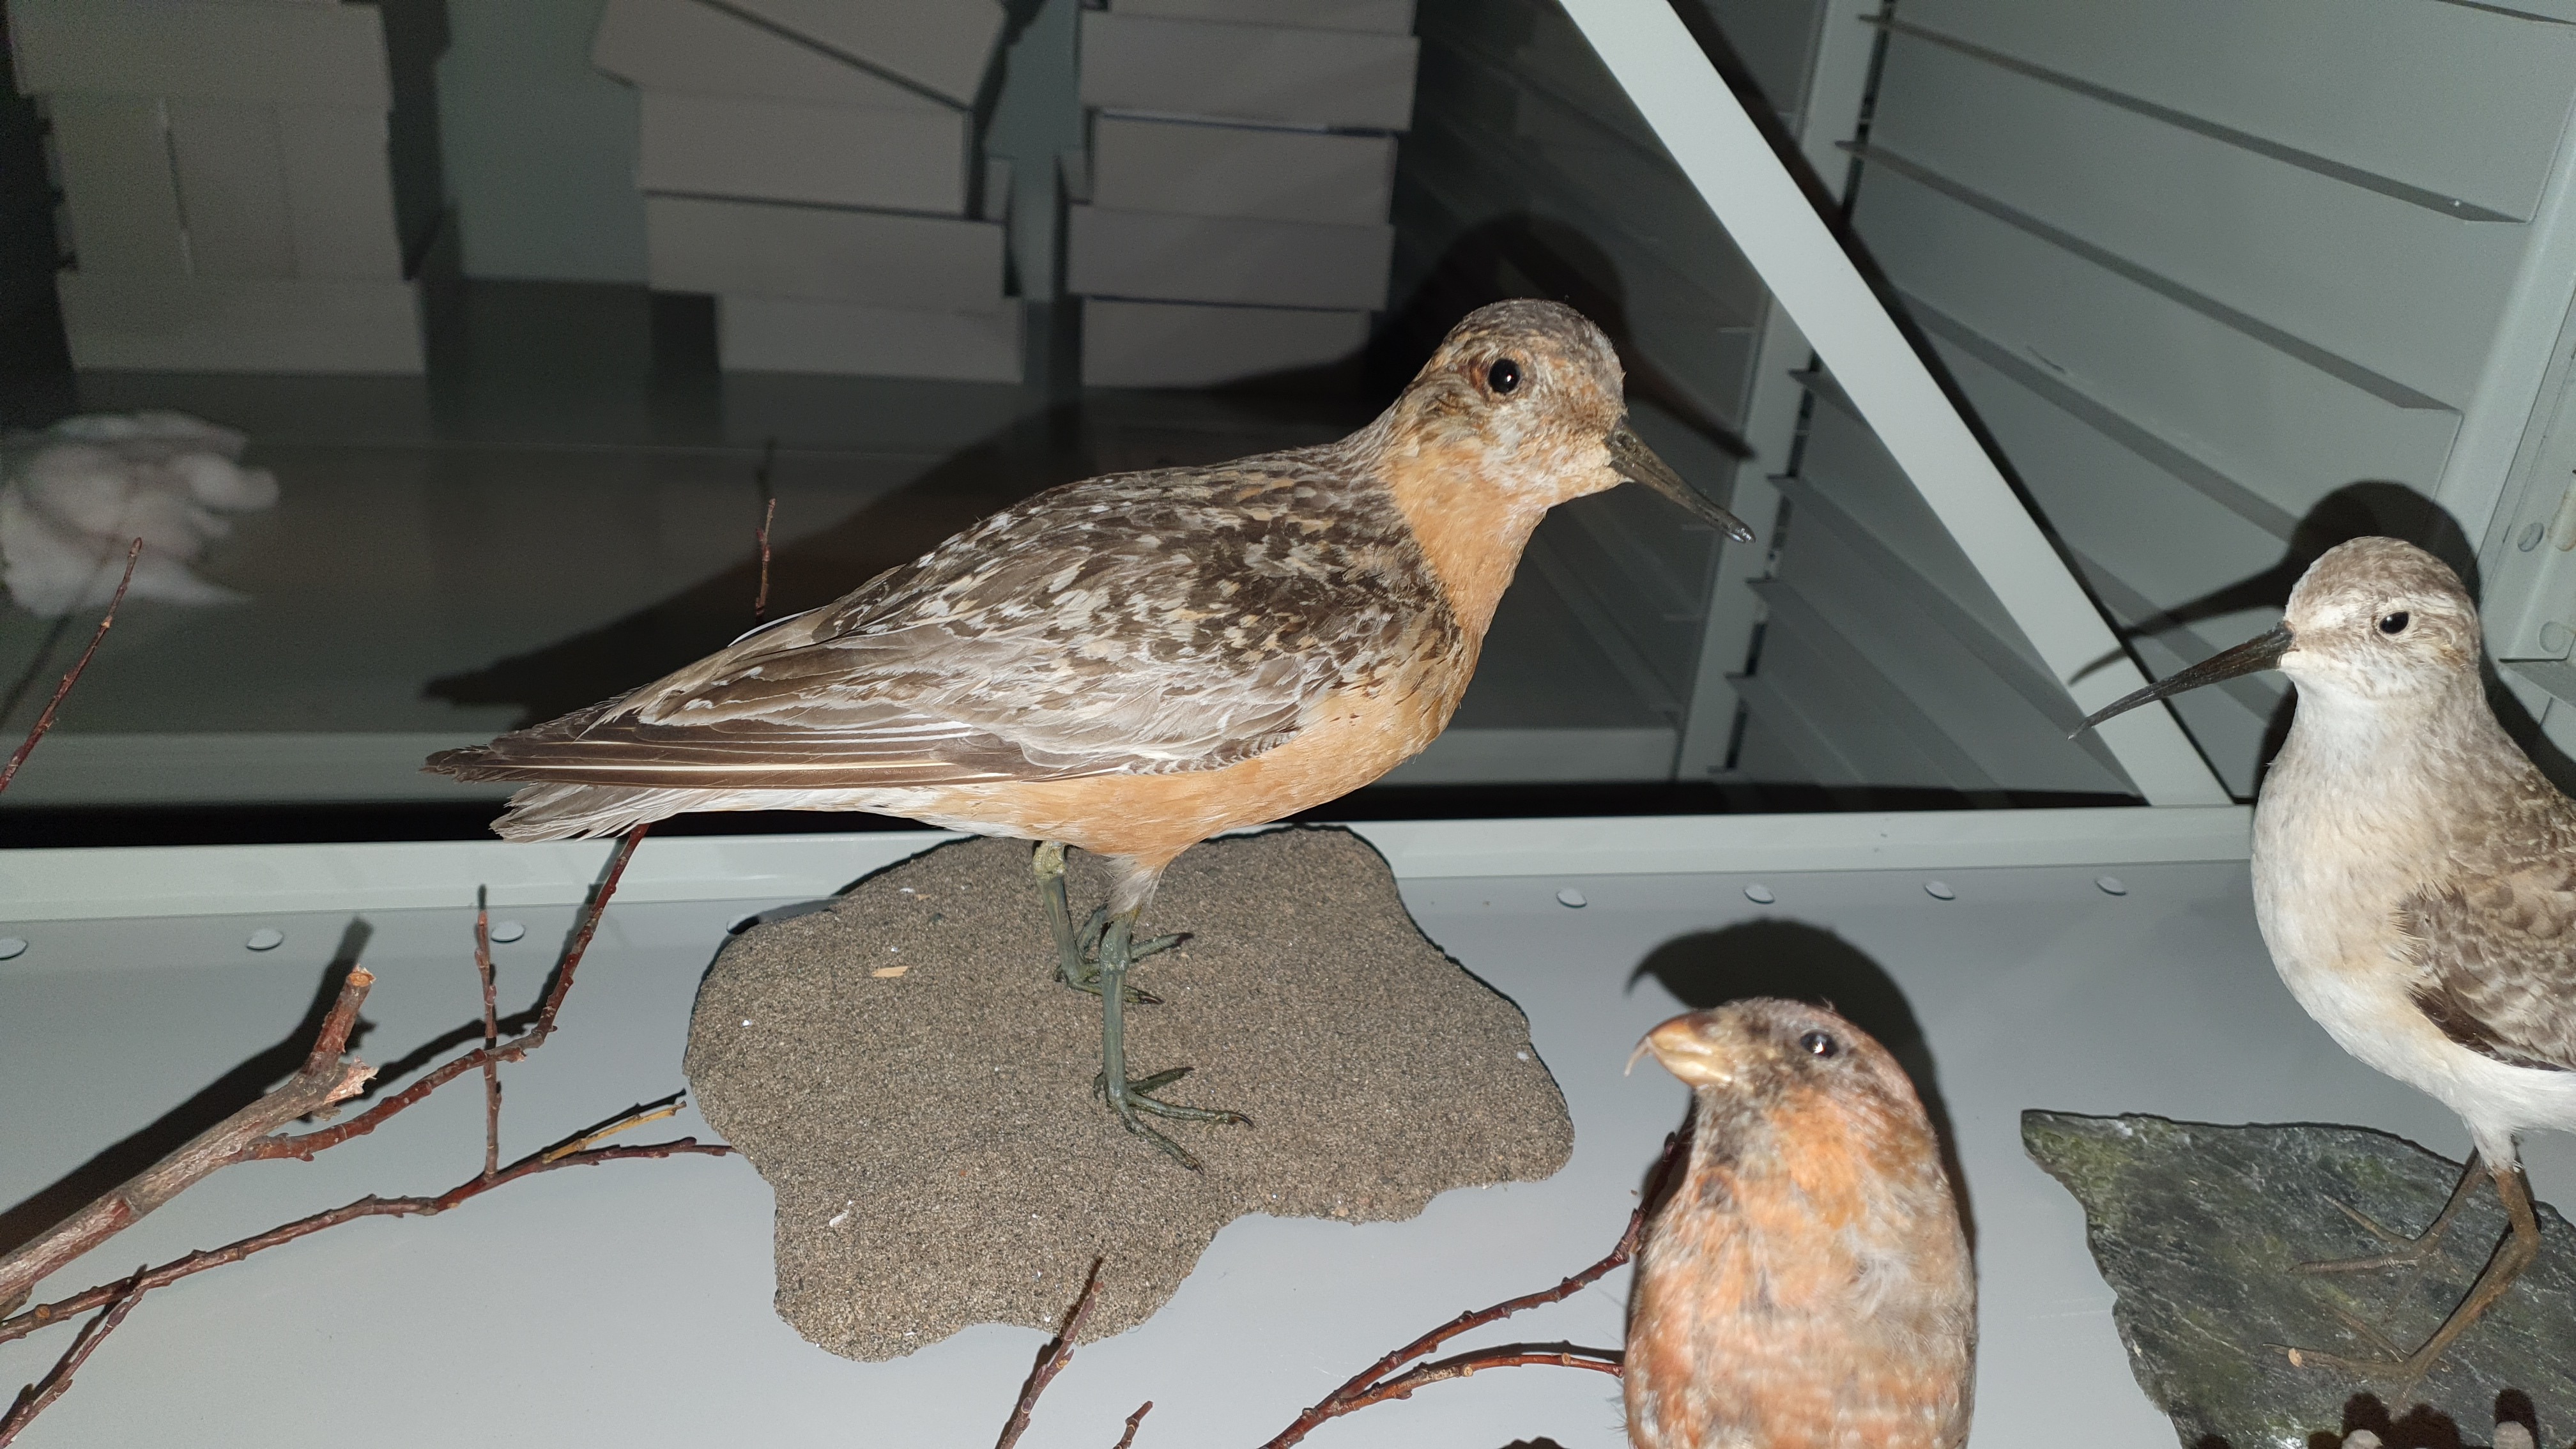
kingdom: Animalia
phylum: Chordata
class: Aves
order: Charadriiformes
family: Scolopacidae
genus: Calidris
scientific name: Calidris canutus
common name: Red knot
